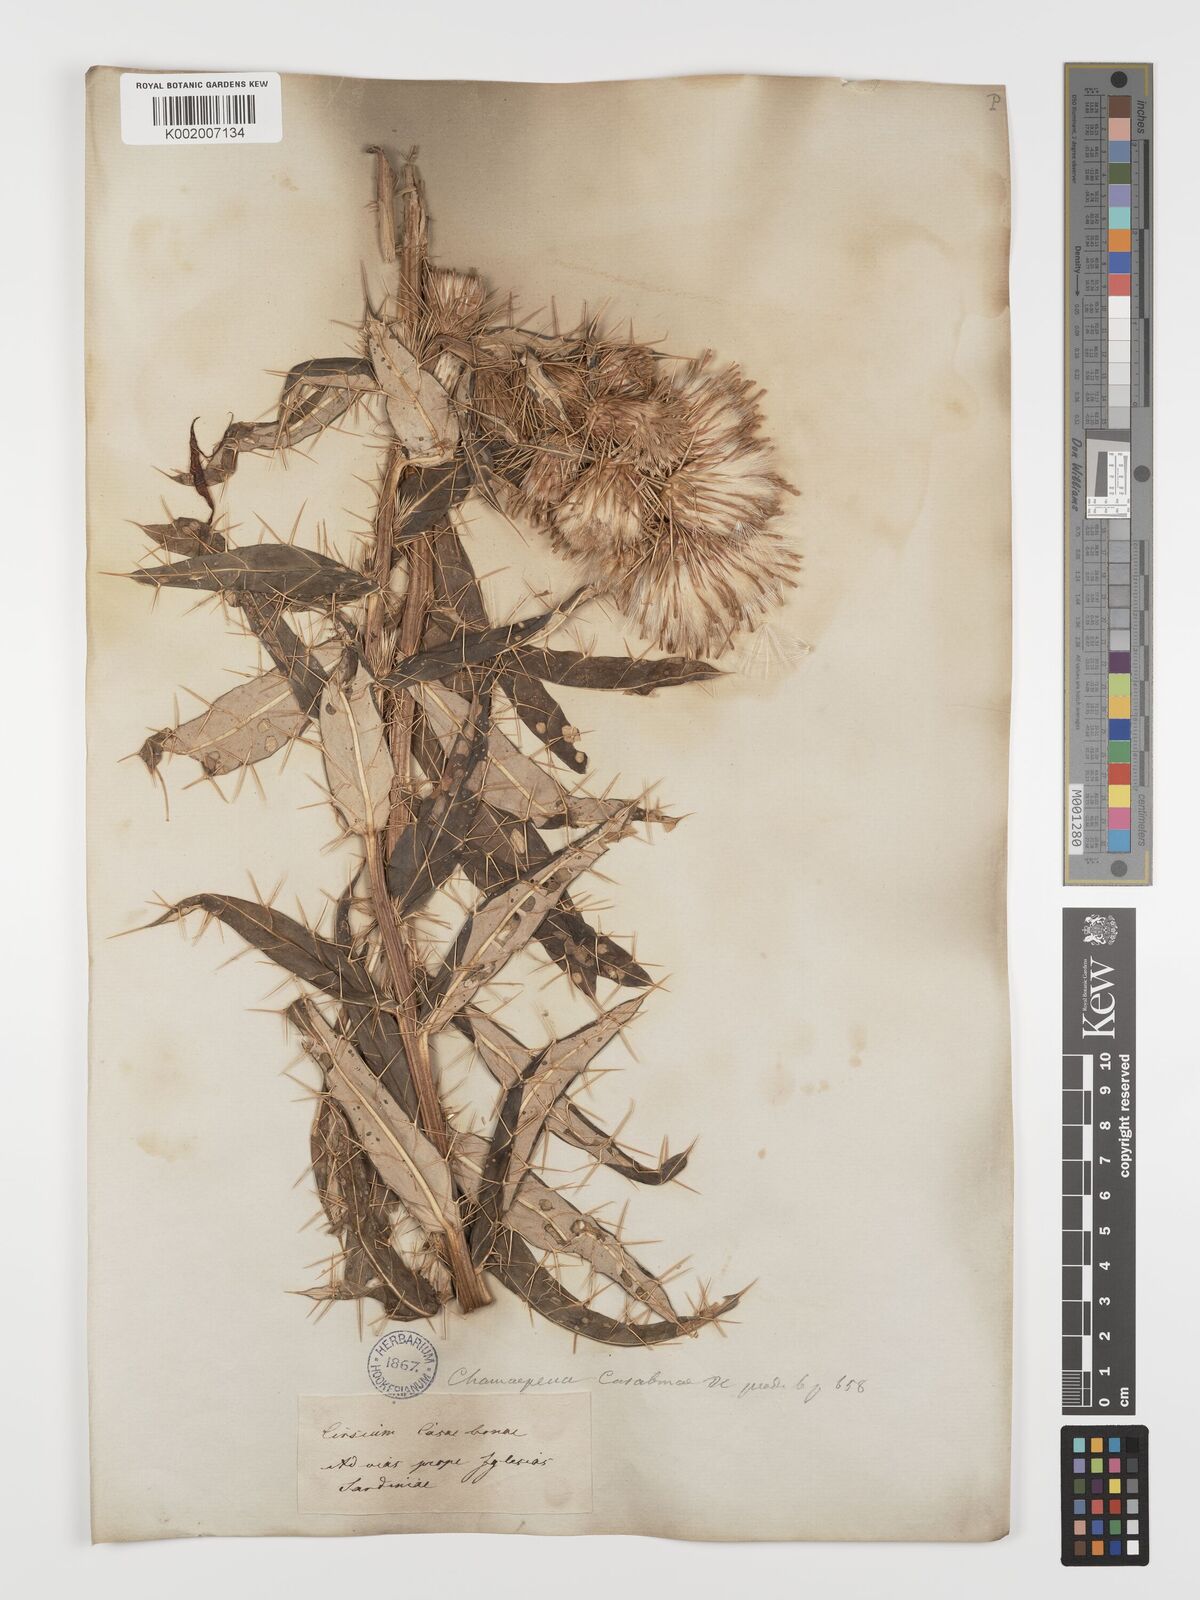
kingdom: Plantae
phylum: Tracheophyta
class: Magnoliopsida
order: Asterales
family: Asteraceae
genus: Ptilostemon
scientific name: Ptilostemon casabonae
